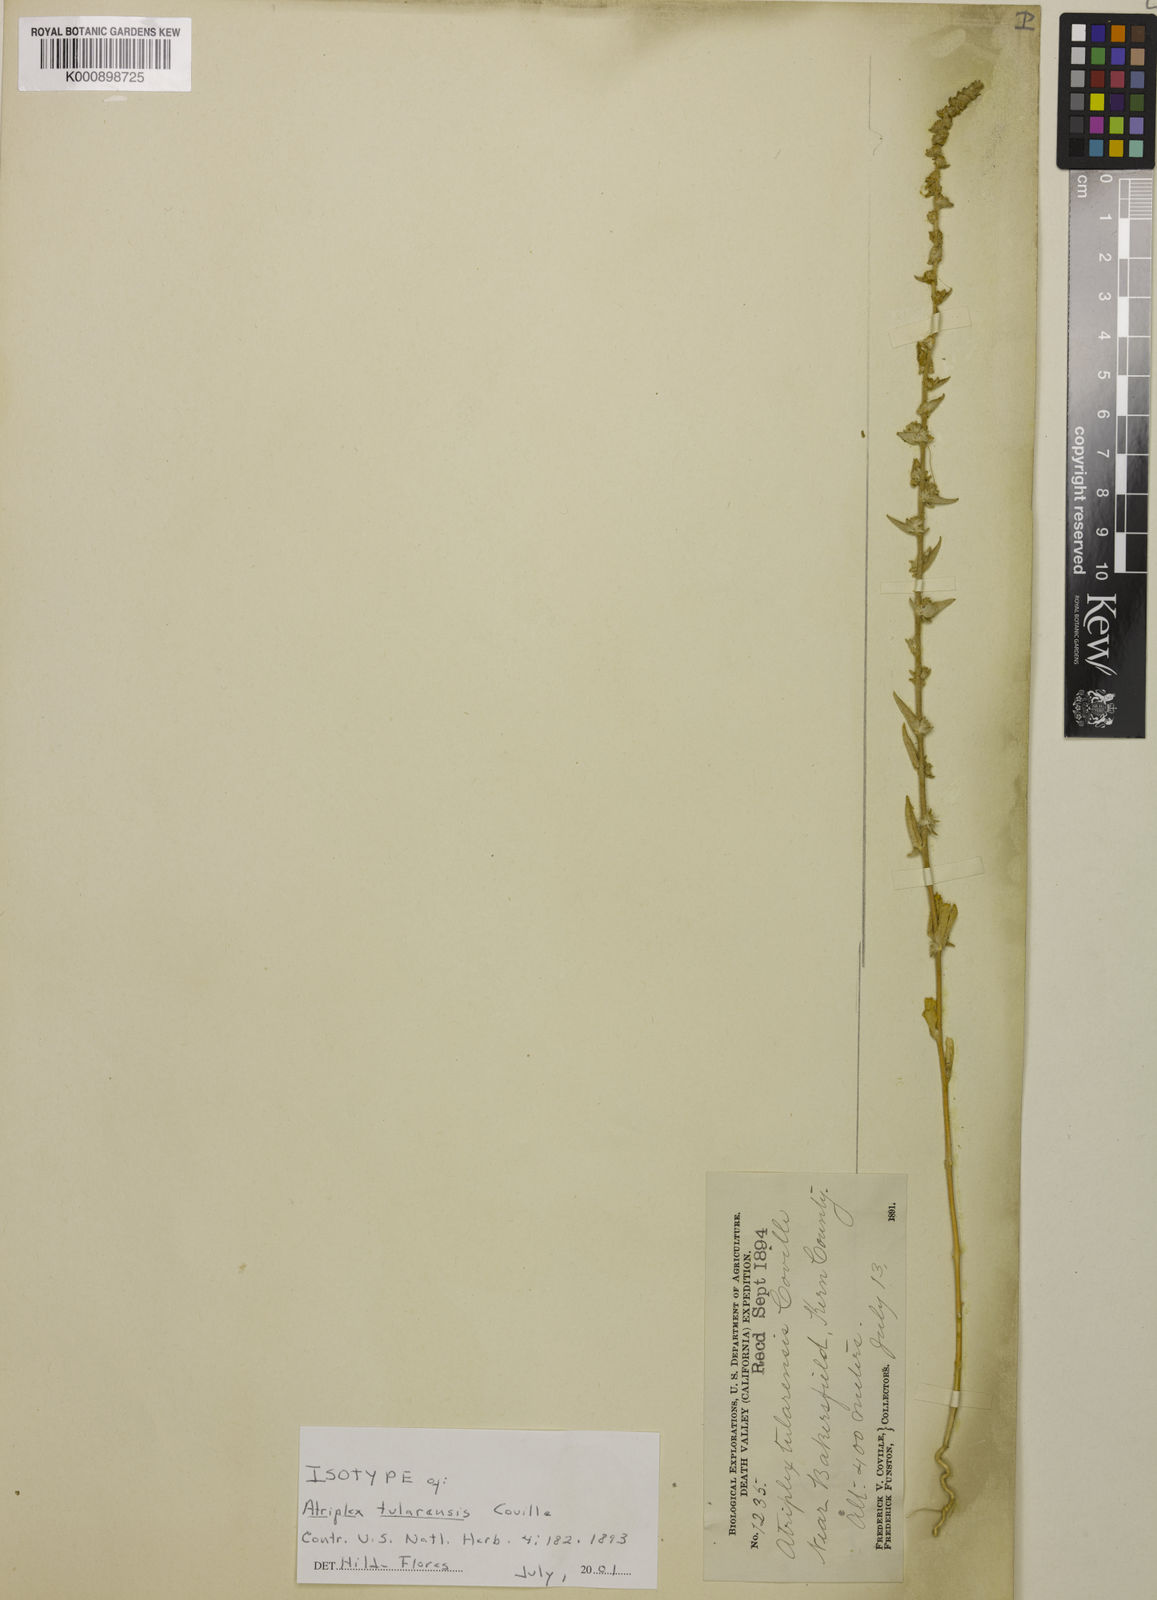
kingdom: Plantae
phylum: Tracheophyta
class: Magnoliopsida
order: Caryophyllales
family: Amaranthaceae
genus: Atriplex
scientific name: Atriplex tularensis
